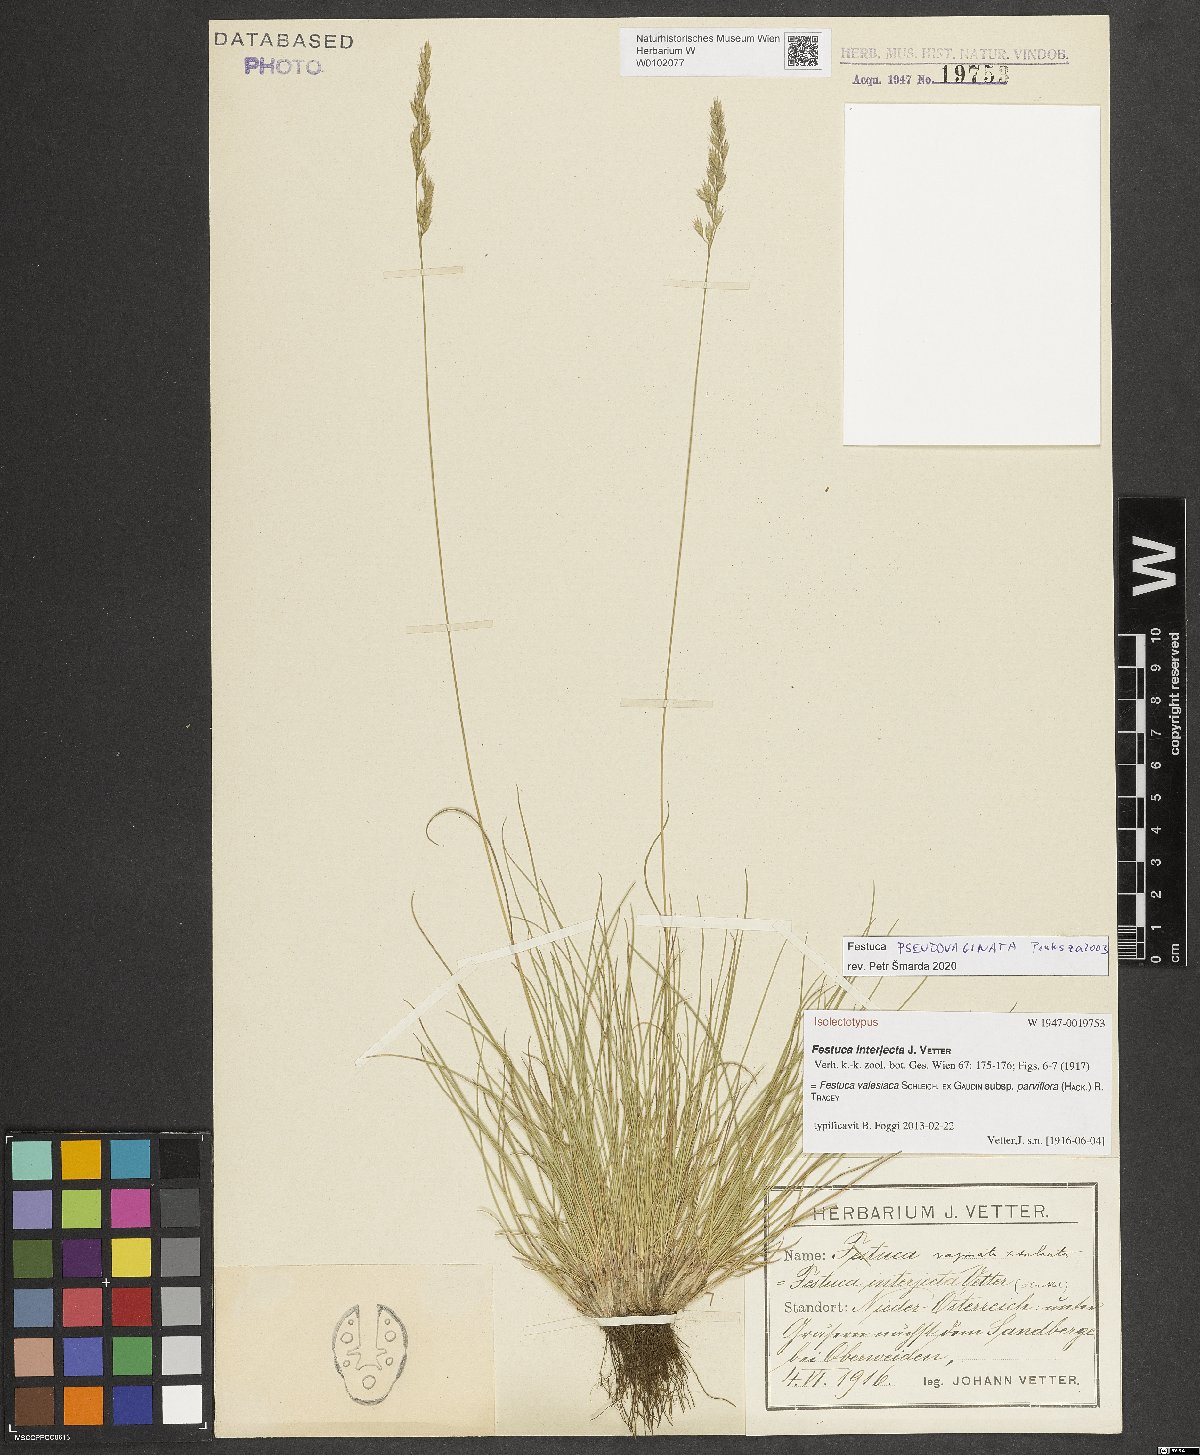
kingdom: Plantae
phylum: Tracheophyta
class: Liliopsida
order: Poales
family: Poaceae
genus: Festuca
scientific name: Festuca valesiaca
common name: Volga fescue
